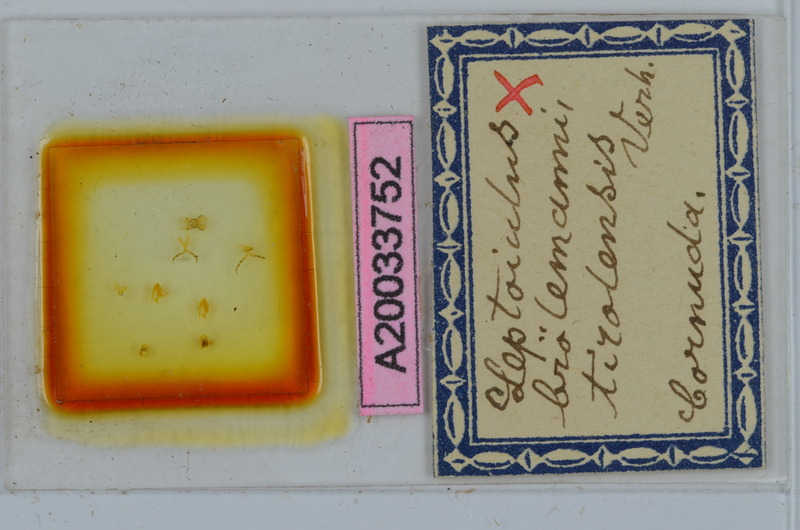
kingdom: Animalia
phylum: Arthropoda
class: Diplopoda
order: Julida
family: Julidae
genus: Leptoiulus
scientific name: Leptoiulus broelemanni
